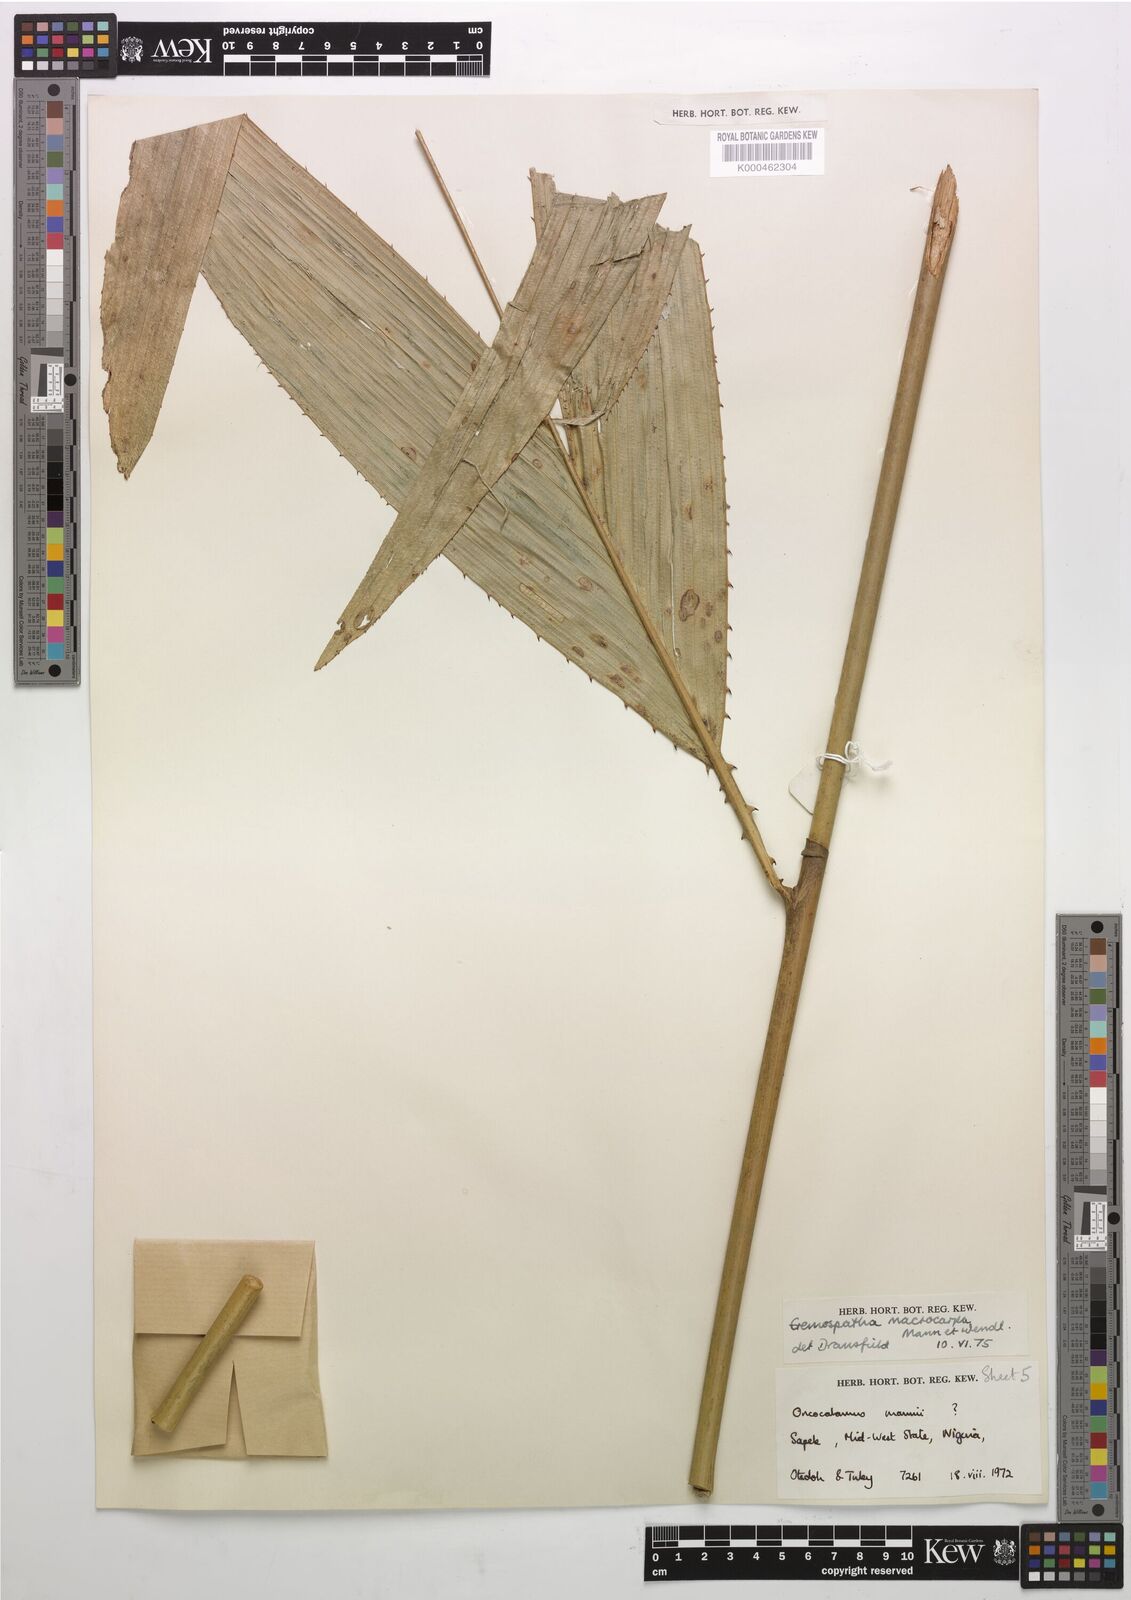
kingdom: Plantae
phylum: Tracheophyta
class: Liliopsida
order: Arecales
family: Arecaceae
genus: Eremospatha
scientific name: Eremospatha
